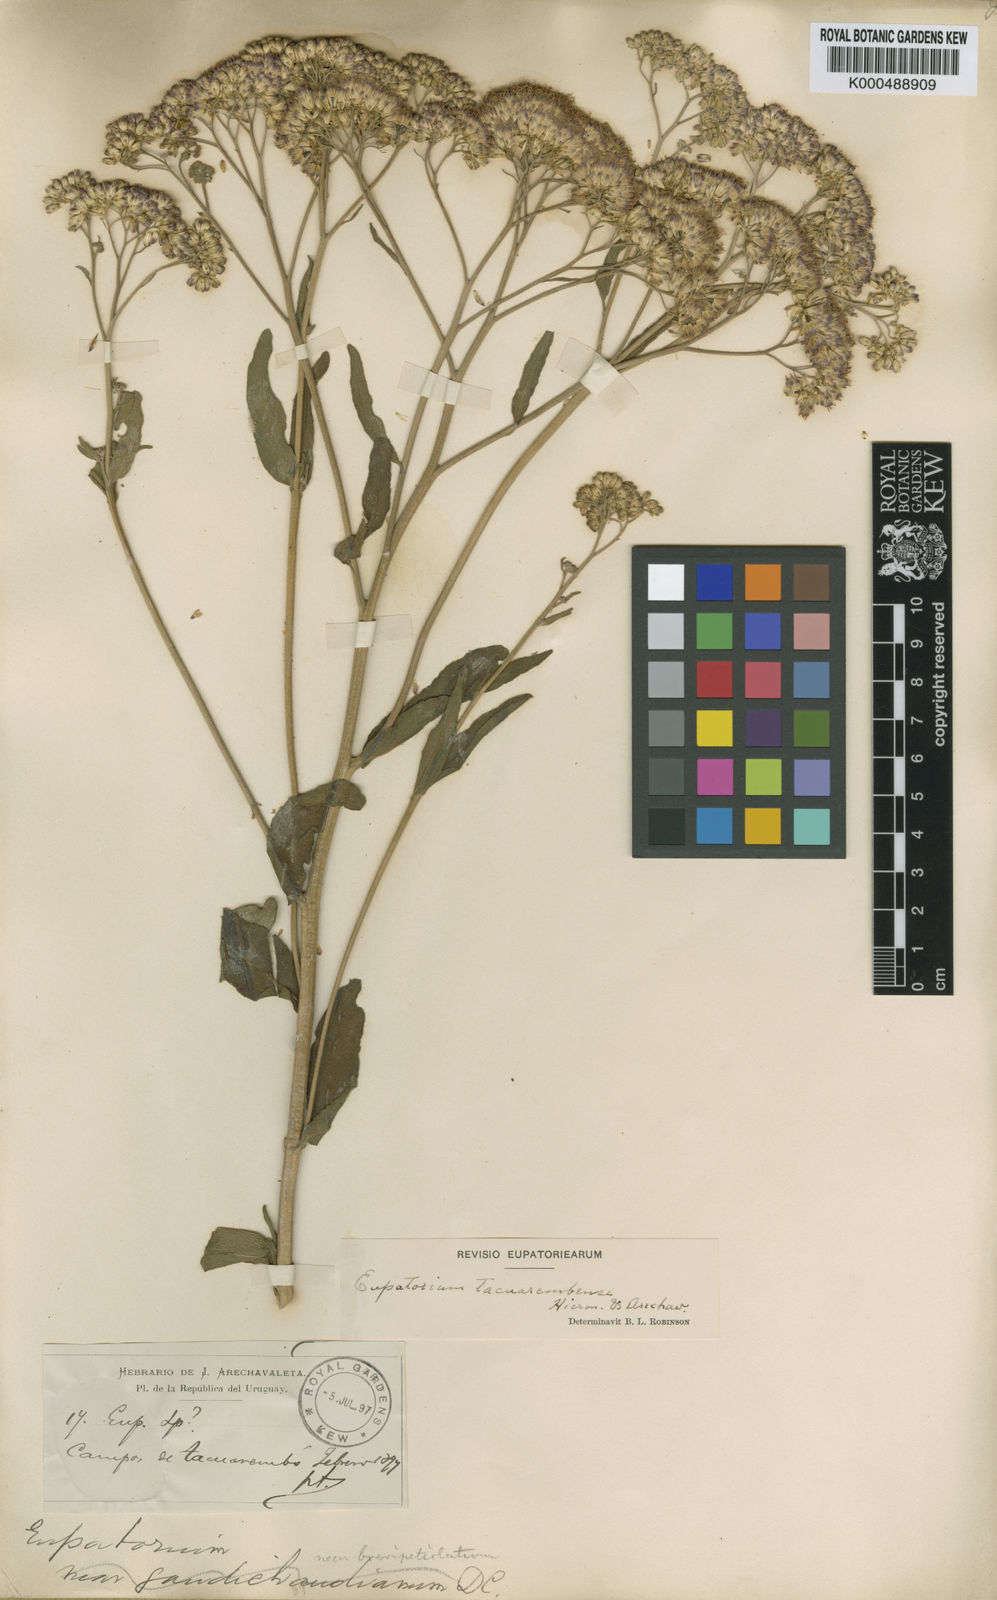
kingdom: Plantae
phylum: Tracheophyta
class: Magnoliopsida
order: Asterales
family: Asteraceae
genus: Disynaphia
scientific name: Disynaphia tacuarembensis
